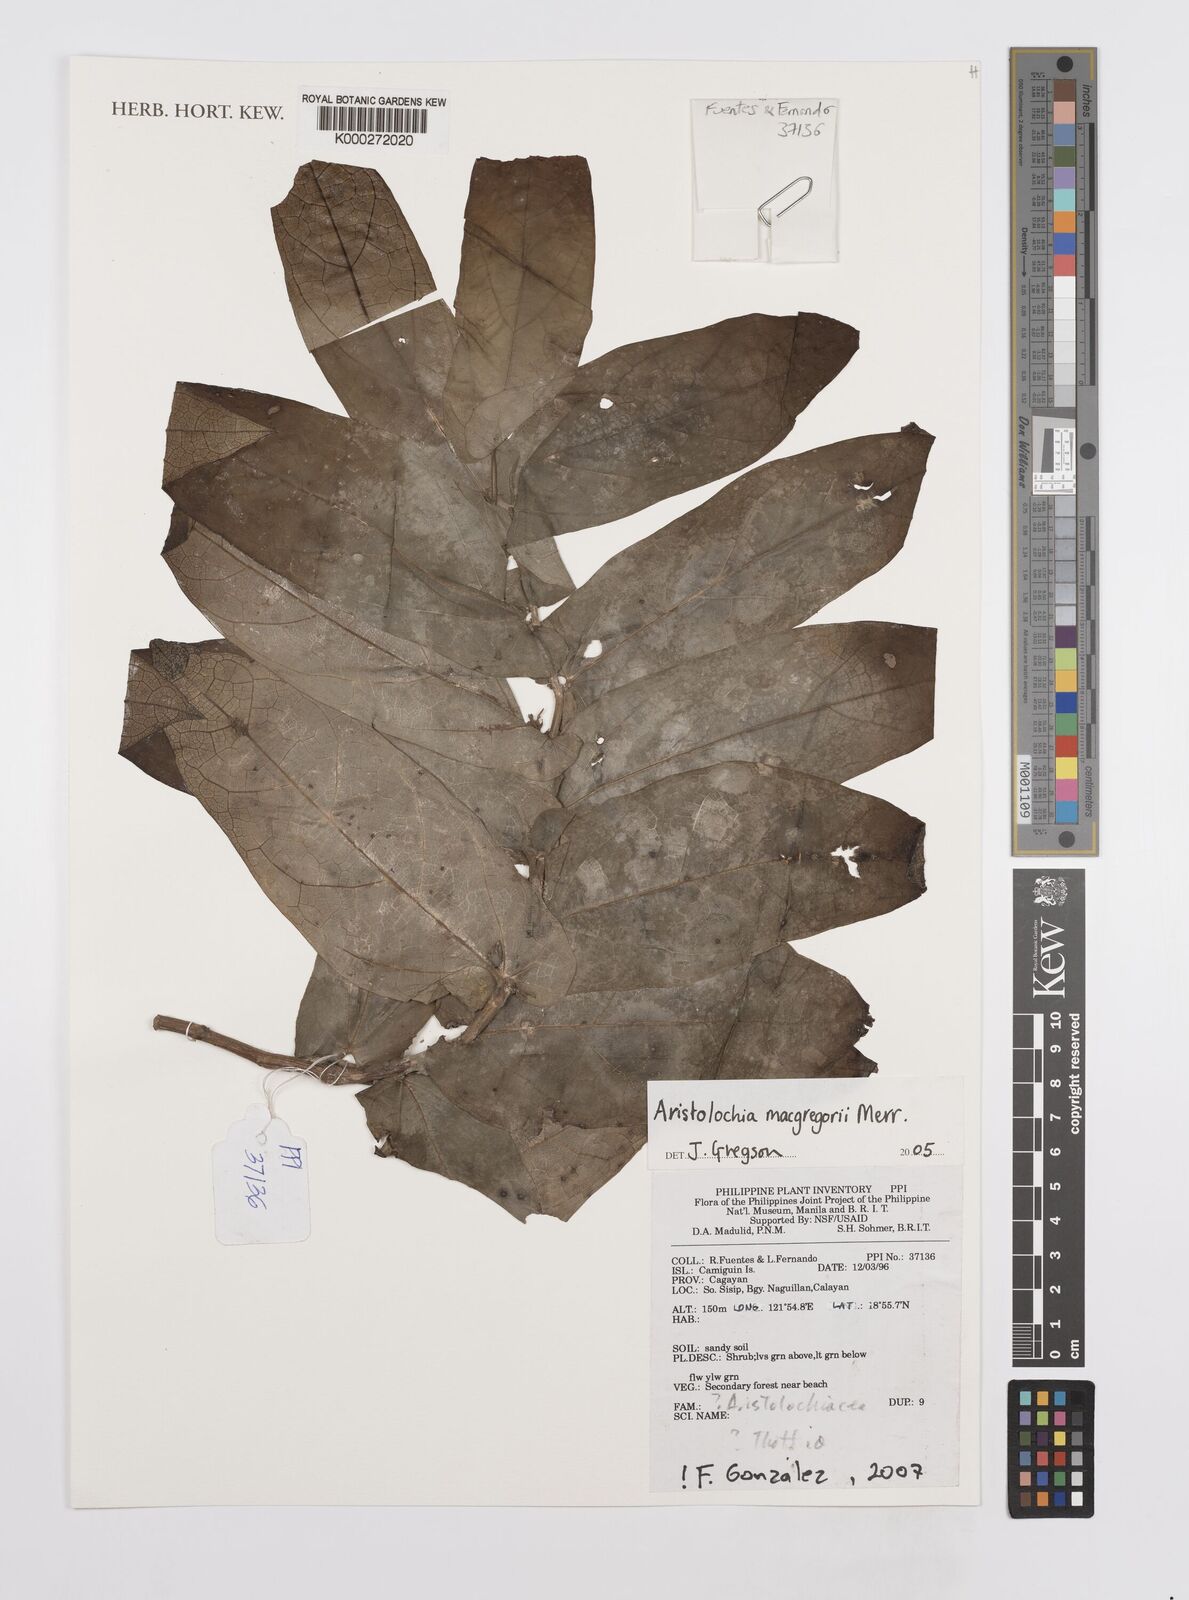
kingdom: Plantae
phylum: Tracheophyta
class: Magnoliopsida
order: Piperales
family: Aristolochiaceae
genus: Aristolochia
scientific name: Aristolochia macgregorii
